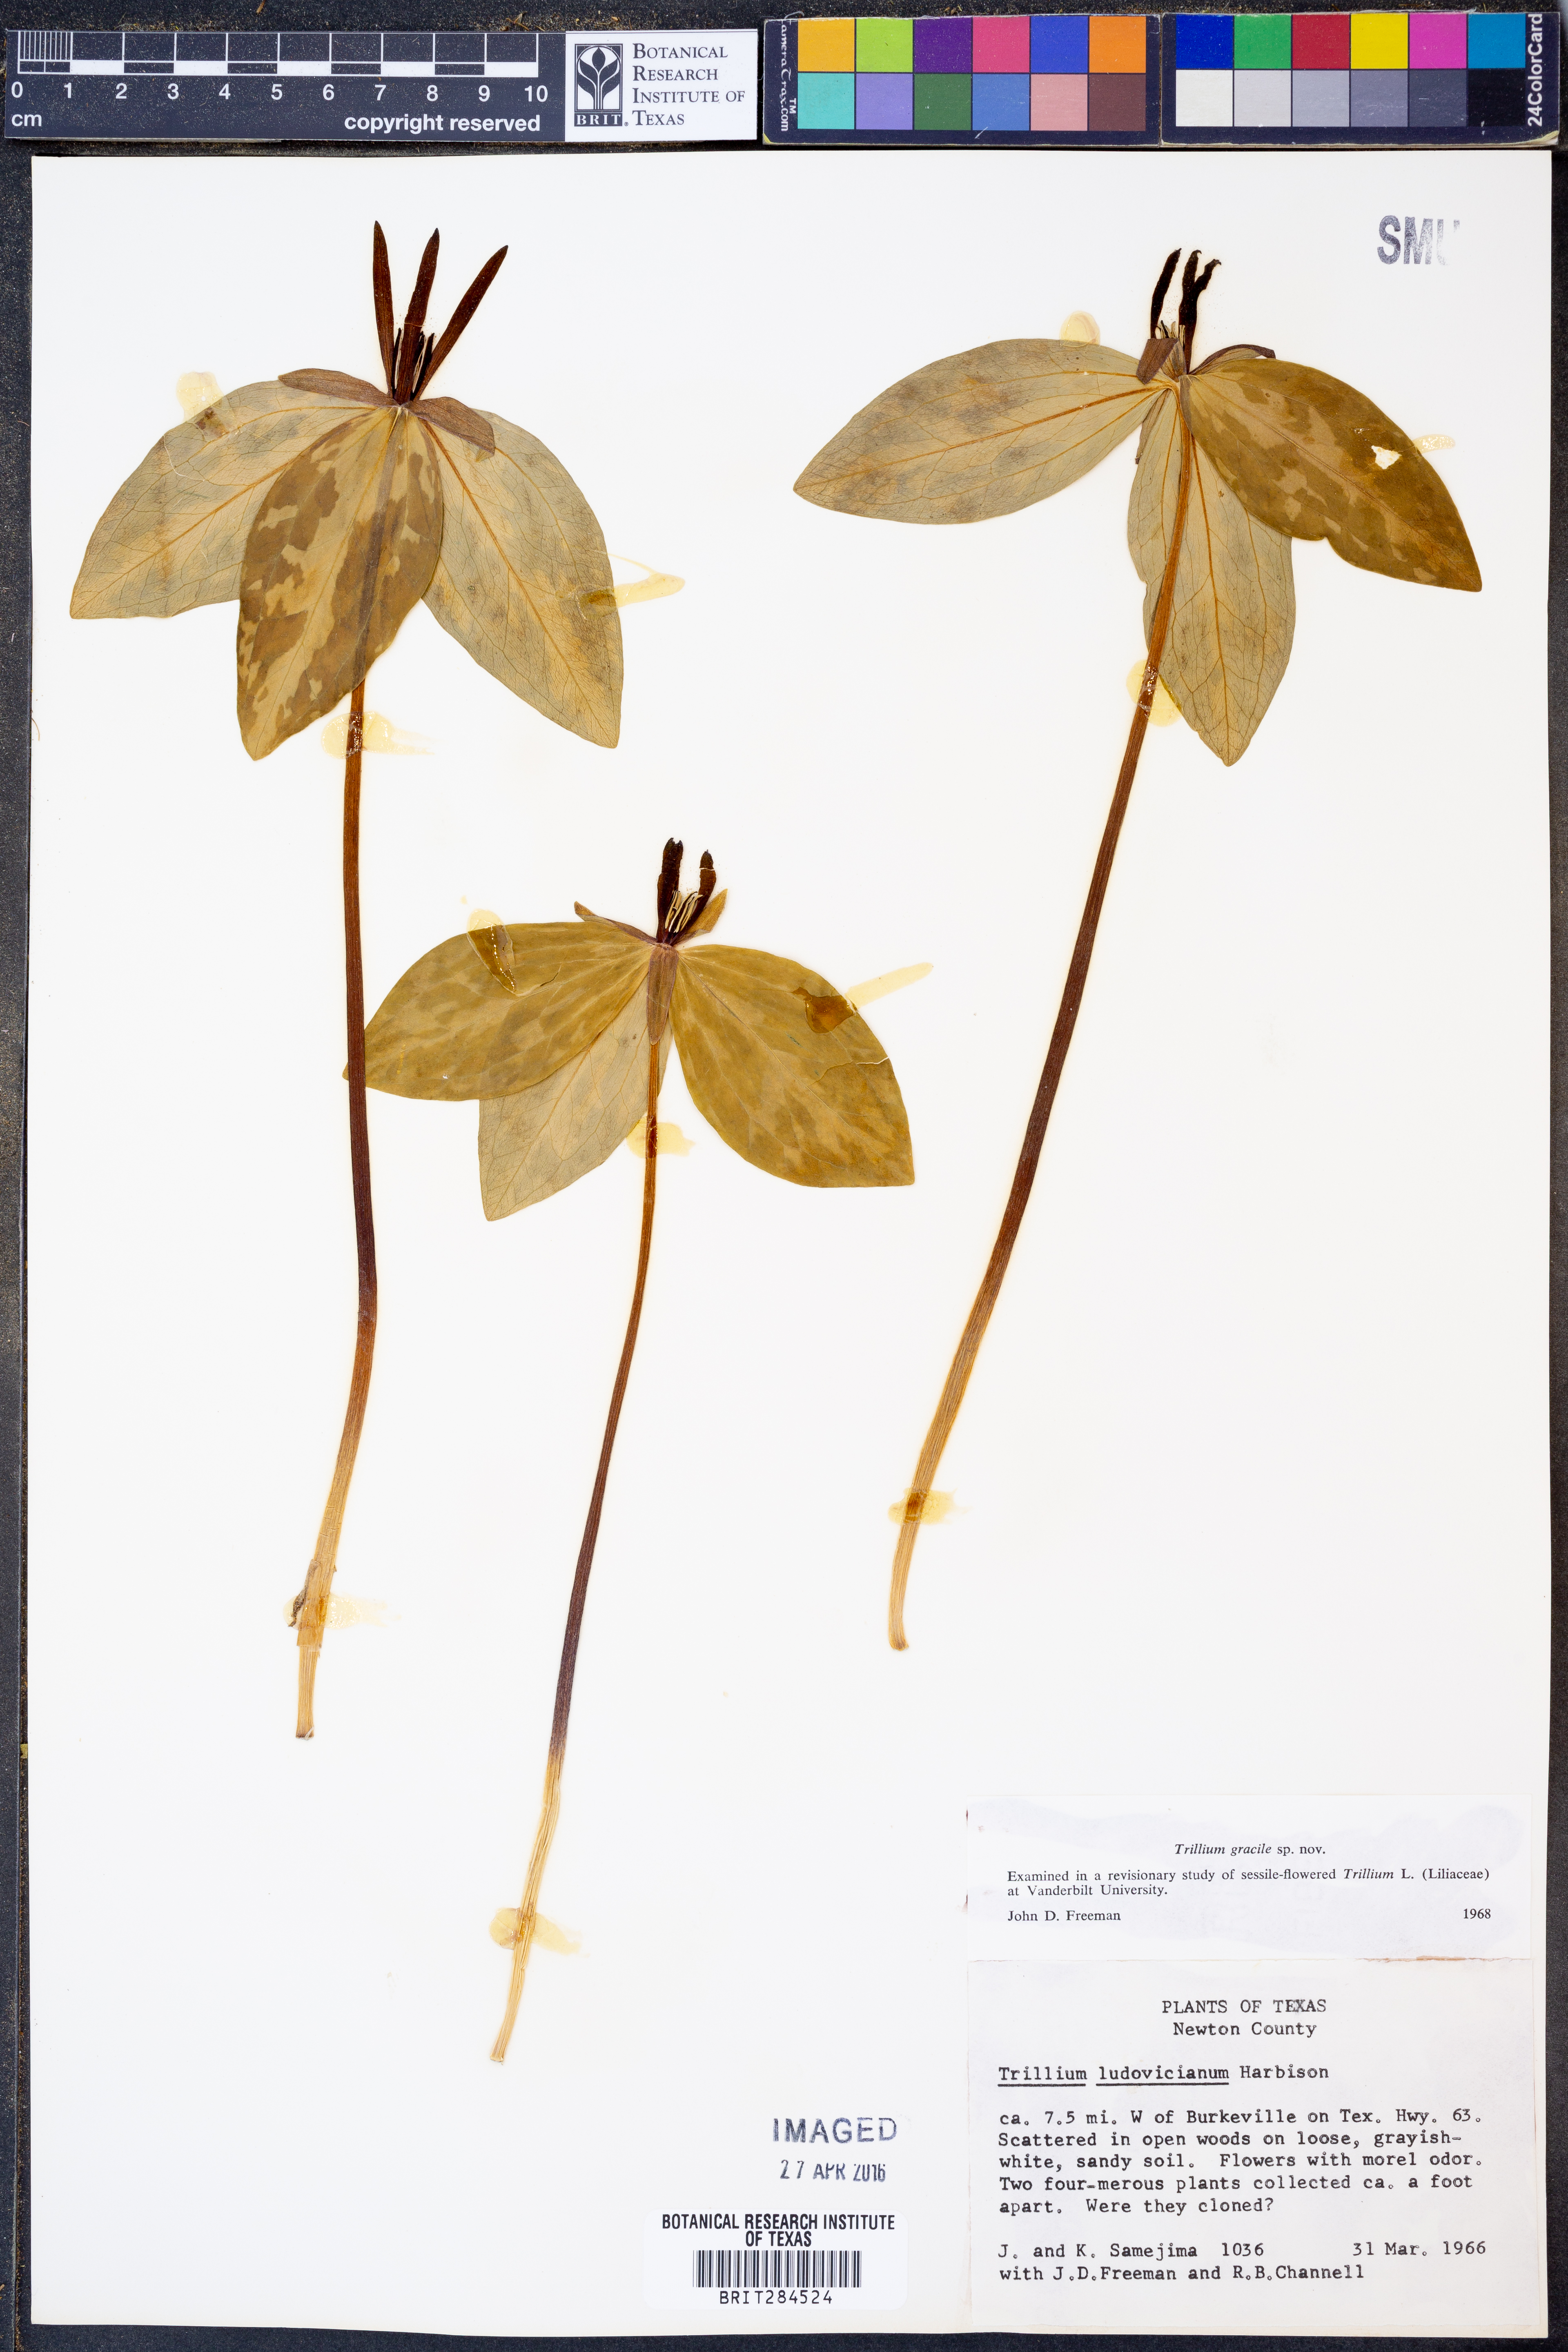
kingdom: Plantae
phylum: Tracheophyta
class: Liliopsida
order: Liliales
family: Melanthiaceae
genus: Trillium
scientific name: Trillium gracile
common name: Graceful trillium
